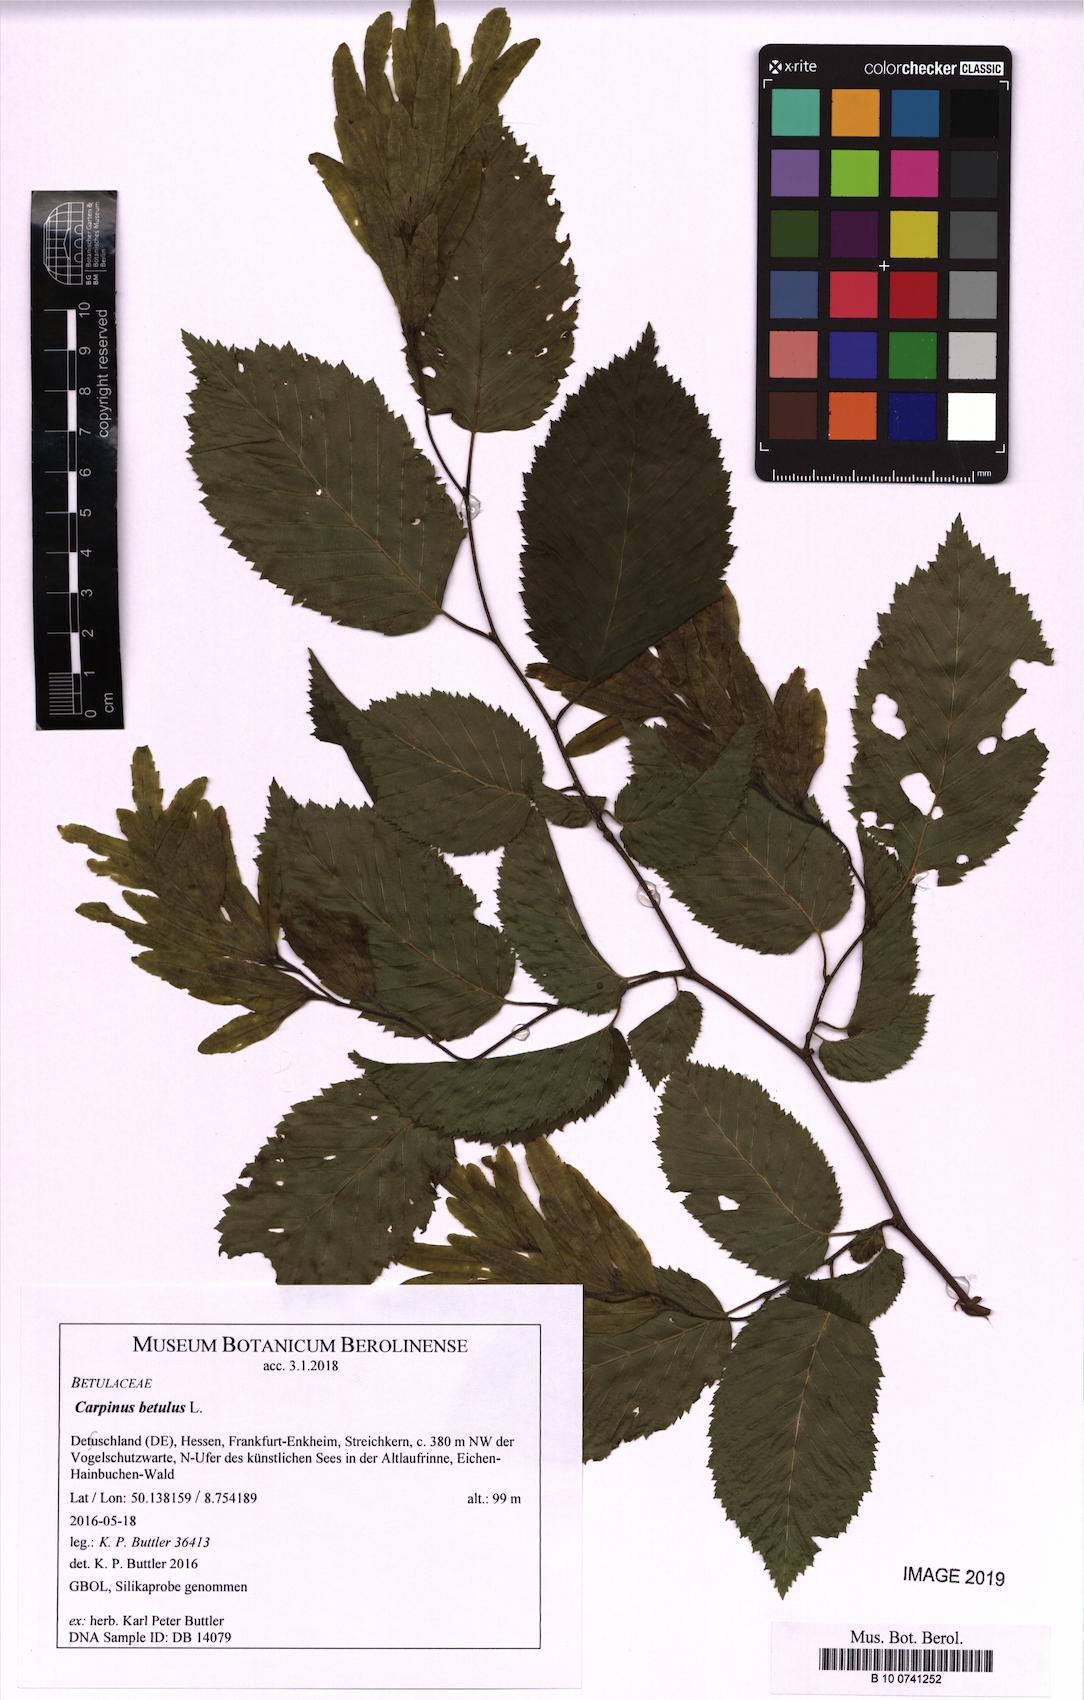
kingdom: Plantae
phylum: Tracheophyta
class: Magnoliopsida
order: Fagales
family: Betulaceae
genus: Carpinus
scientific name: Carpinus betulus
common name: Hornbeam
